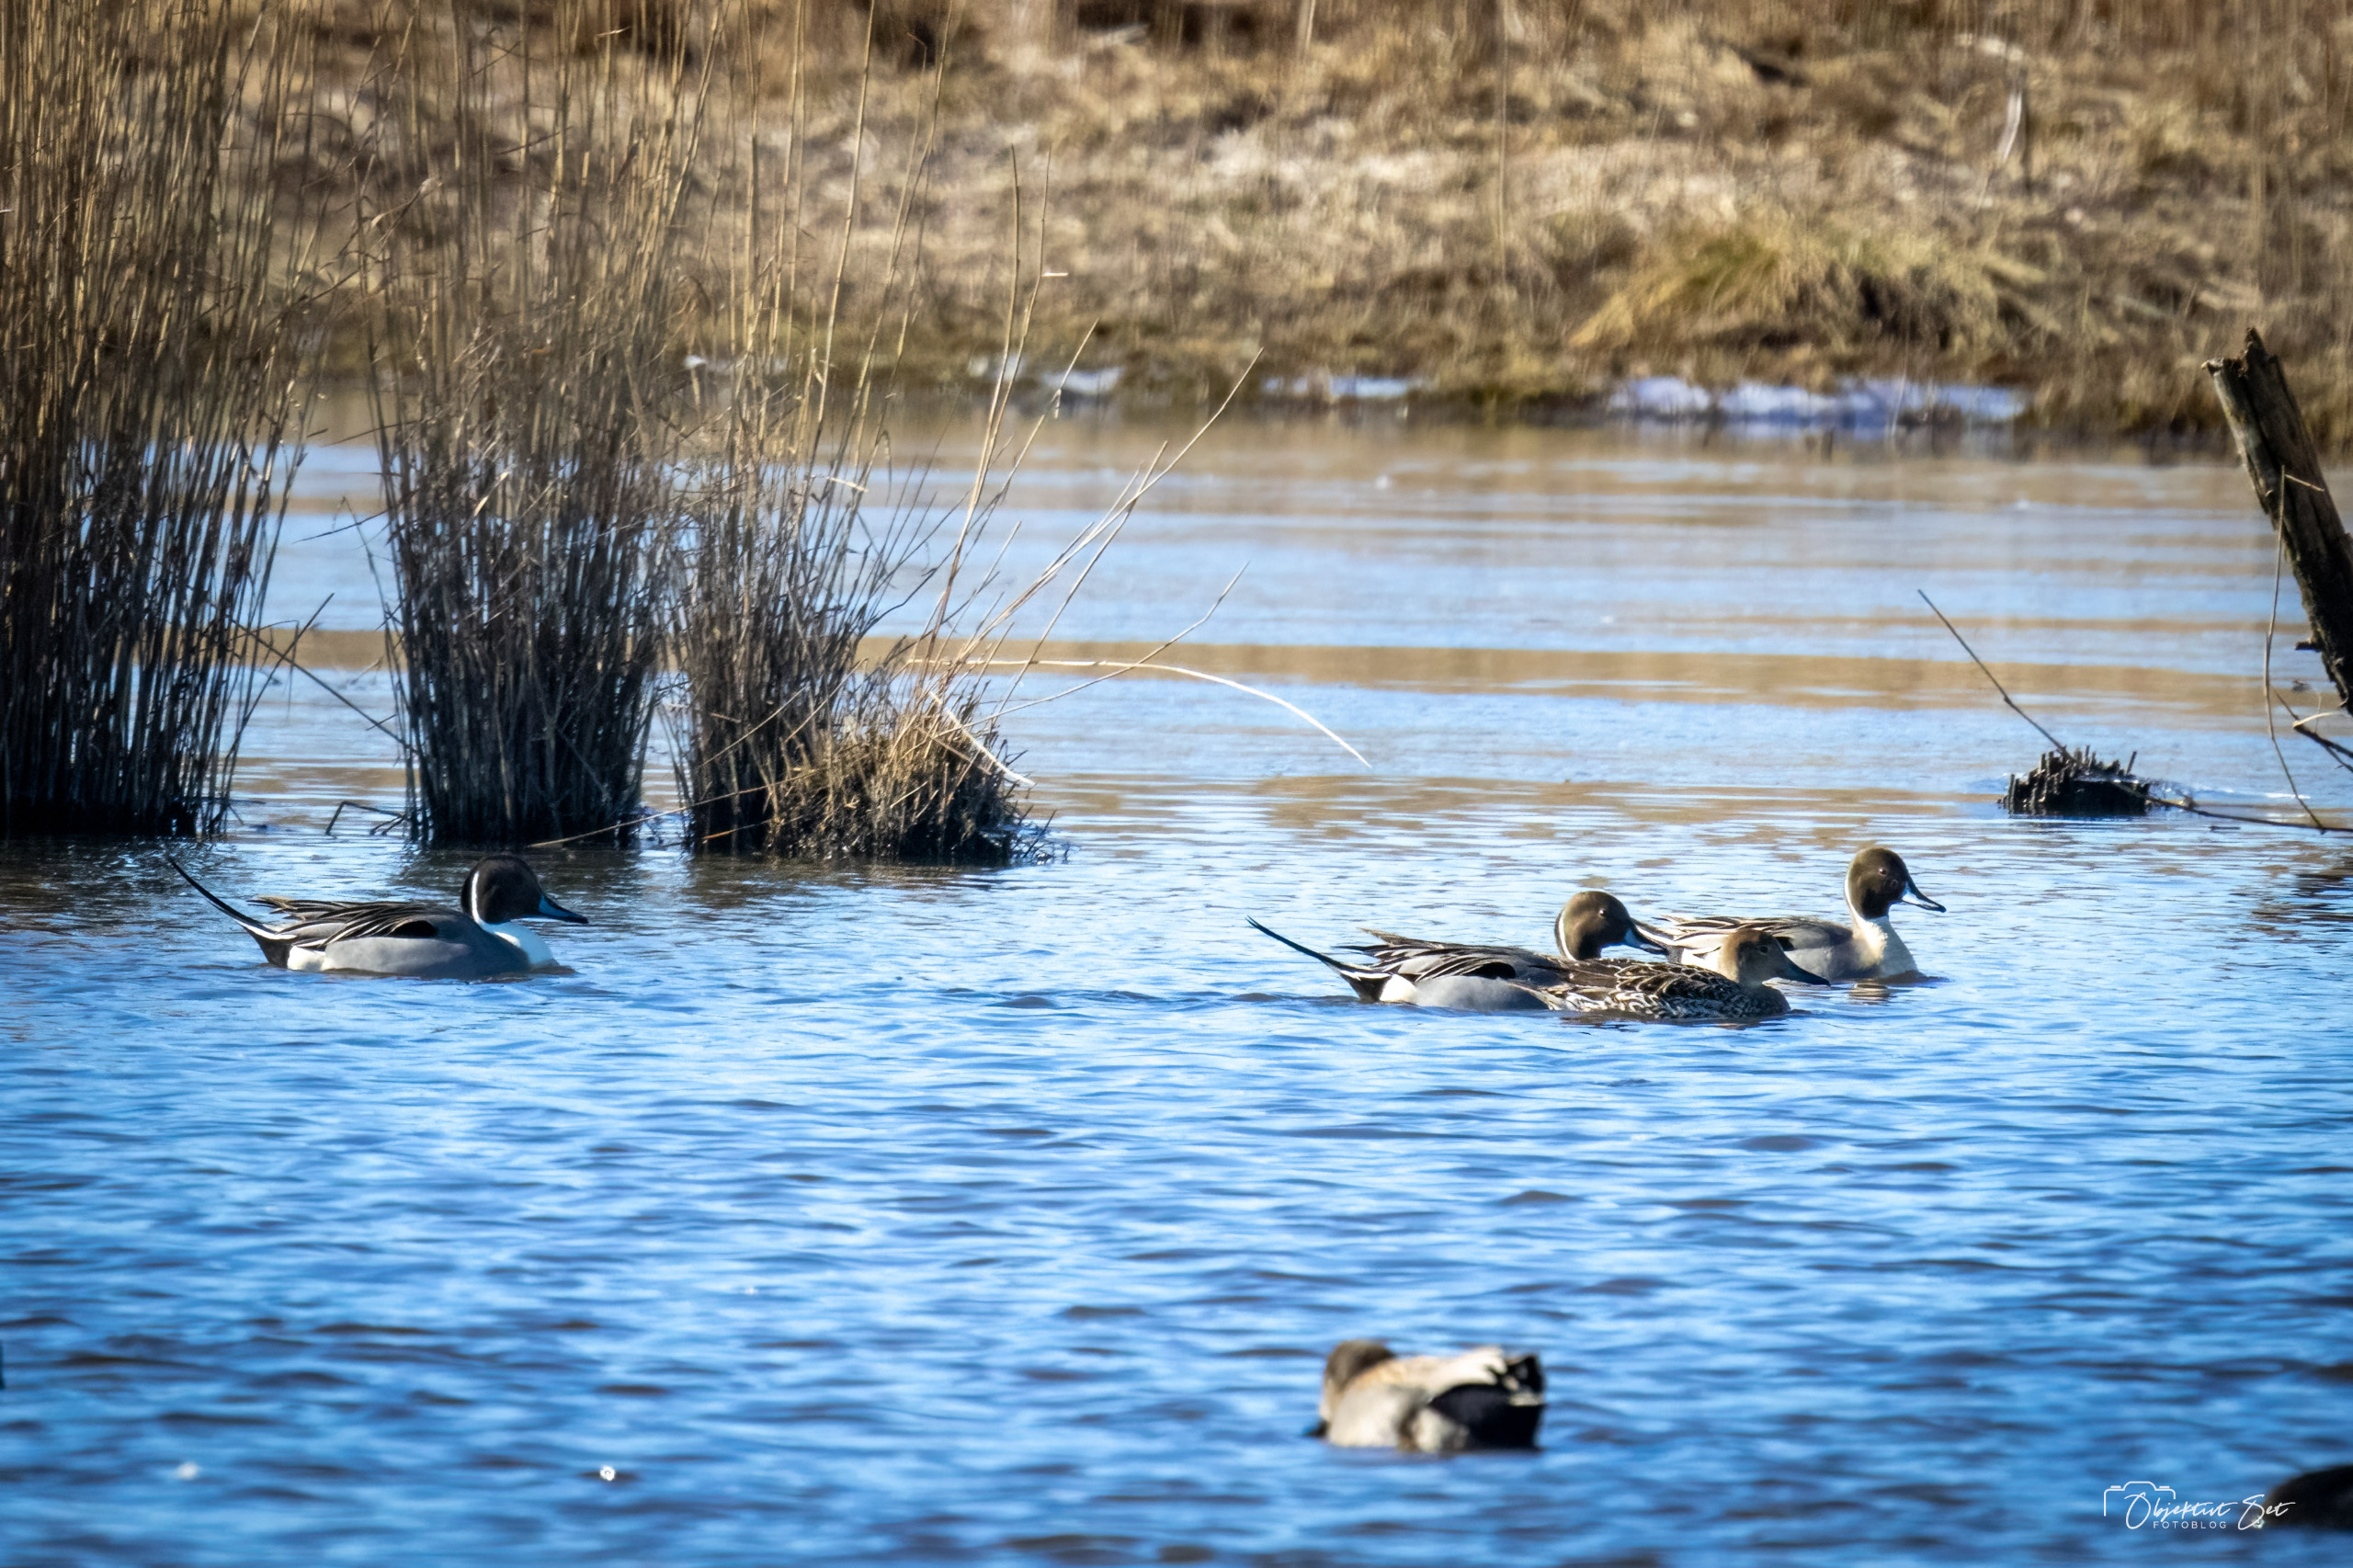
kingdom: Animalia
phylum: Chordata
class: Aves
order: Anseriformes
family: Anatidae
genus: Anas
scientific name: Anas acuta
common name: Spidsand
